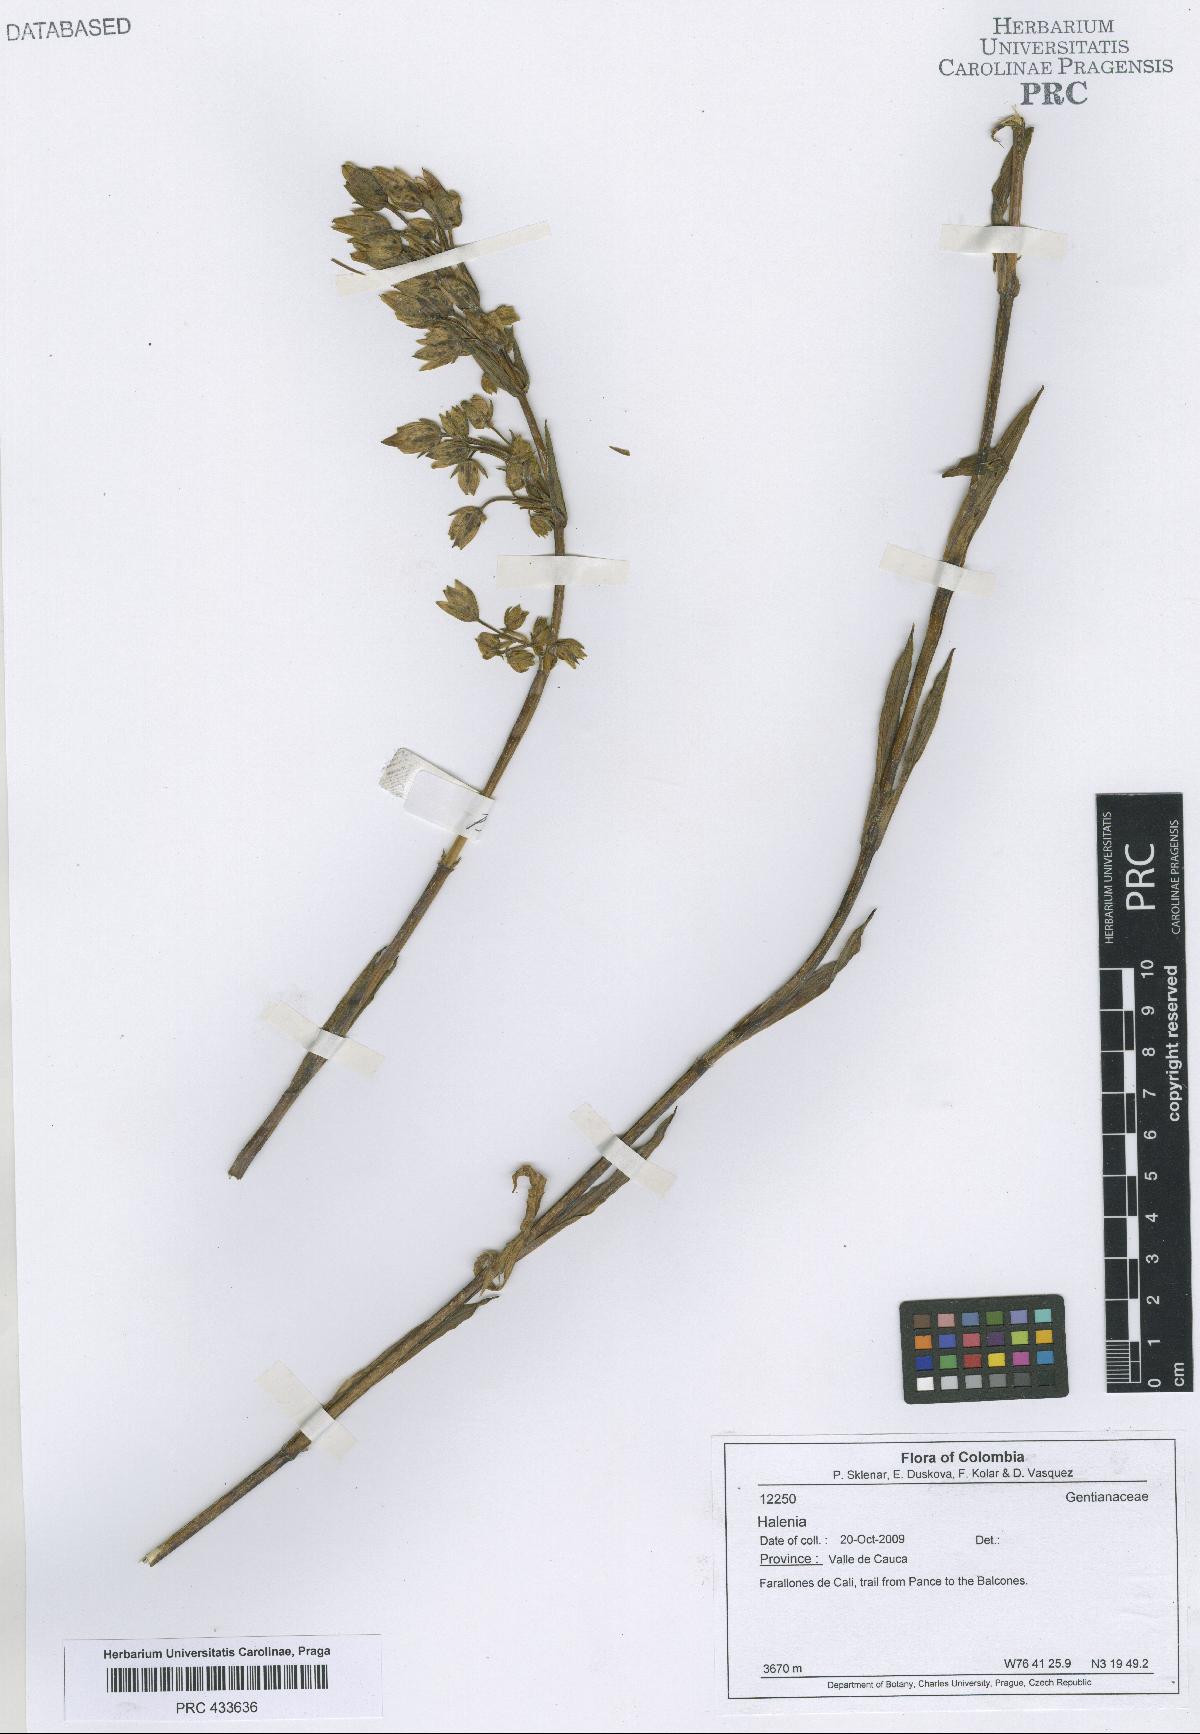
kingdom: Plantae
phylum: Tracheophyta
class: Magnoliopsida
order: Gentianales
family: Gentianaceae
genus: Halenia
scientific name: Halenia
